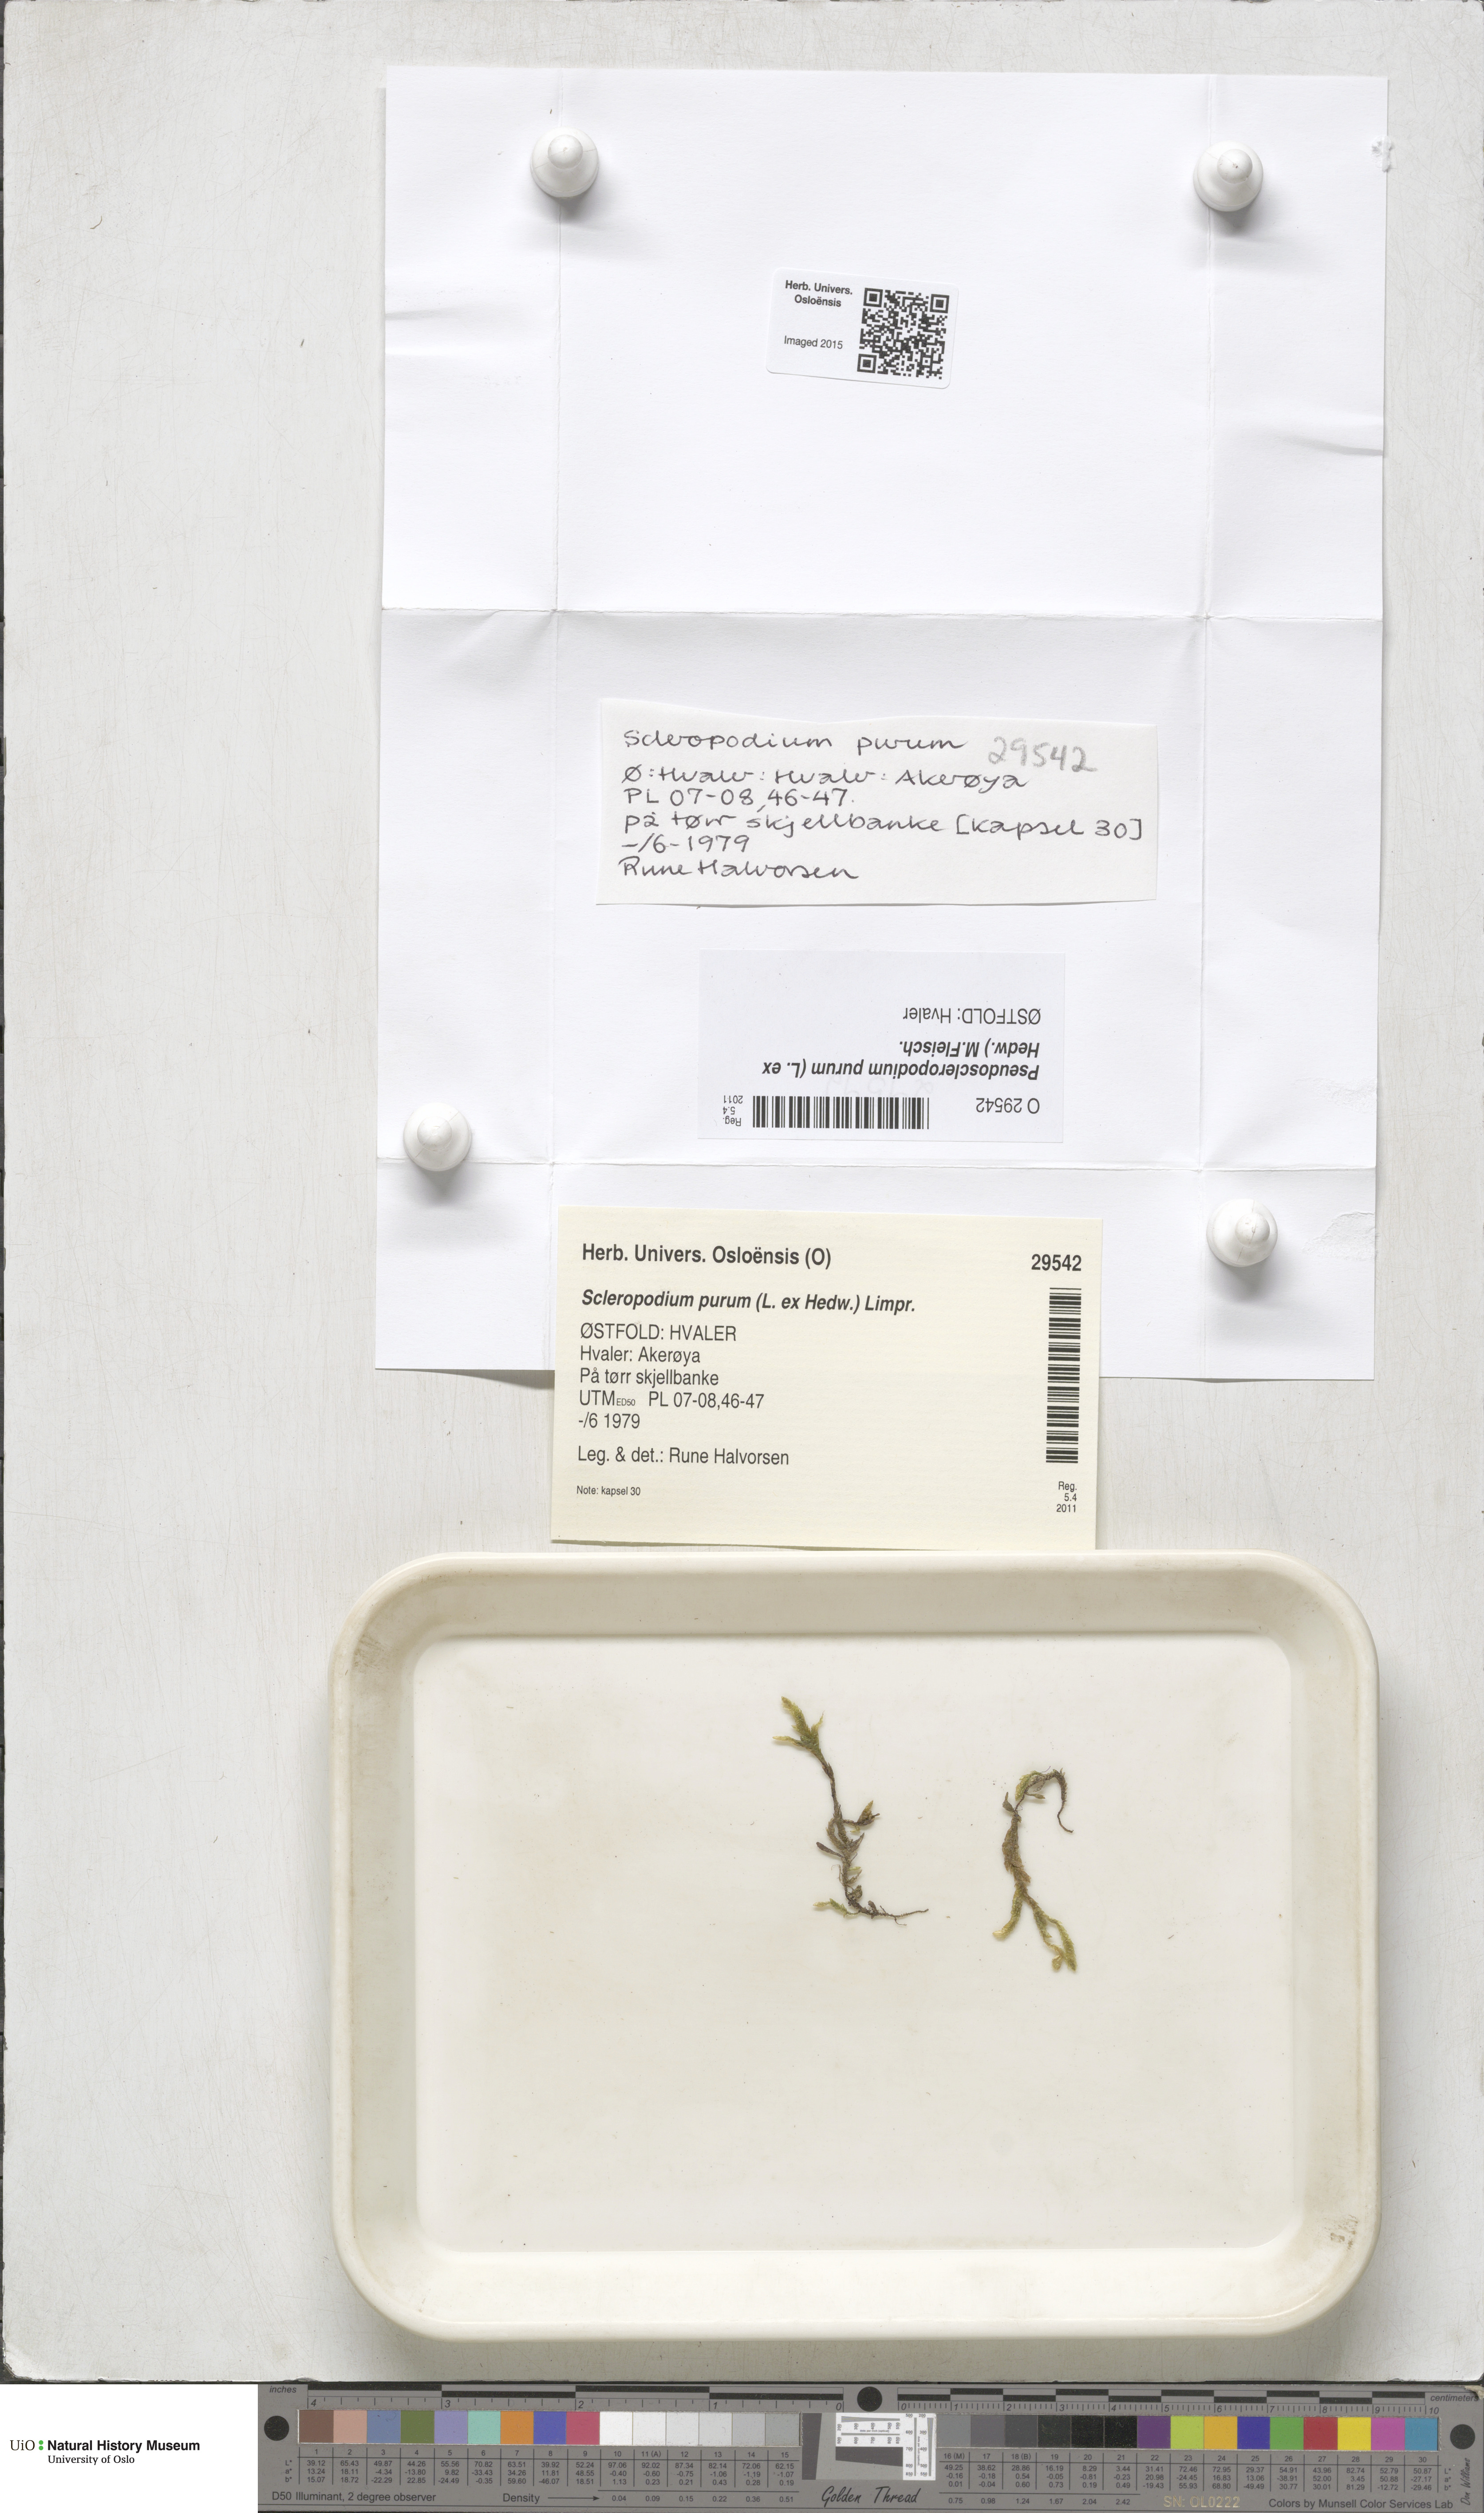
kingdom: Plantae
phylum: Bryophyta
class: Bryopsida
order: Hypnales
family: Brachytheciaceae
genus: Pseudoscleropodium
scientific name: Pseudoscleropodium purum
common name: Neat feather-moss
